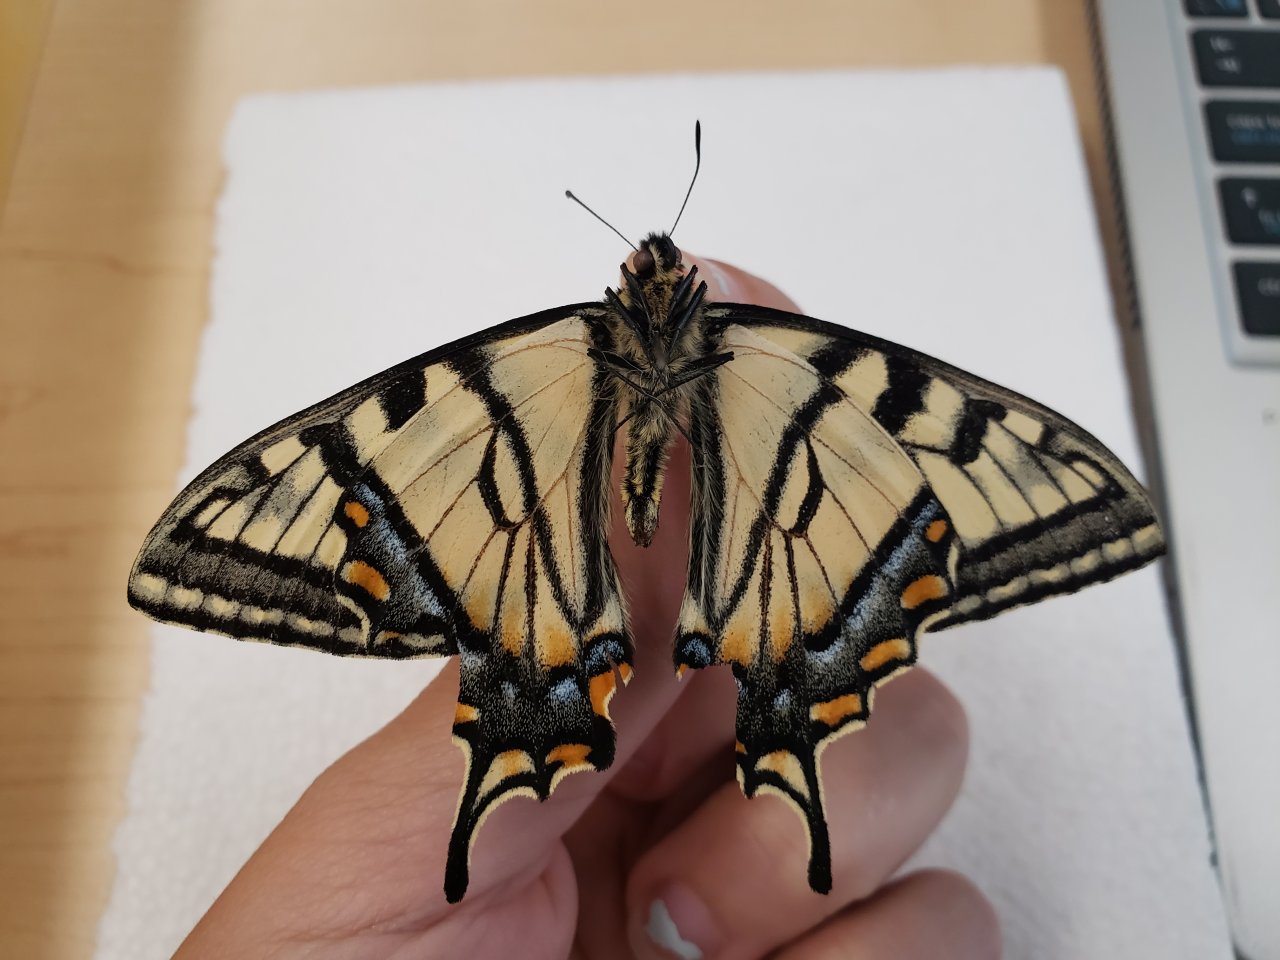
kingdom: Animalia
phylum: Arthropoda
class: Insecta
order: Lepidoptera
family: Papilionidae
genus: Pterourus
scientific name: Pterourus canadensis
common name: Canadian Tiger Swallowtail
